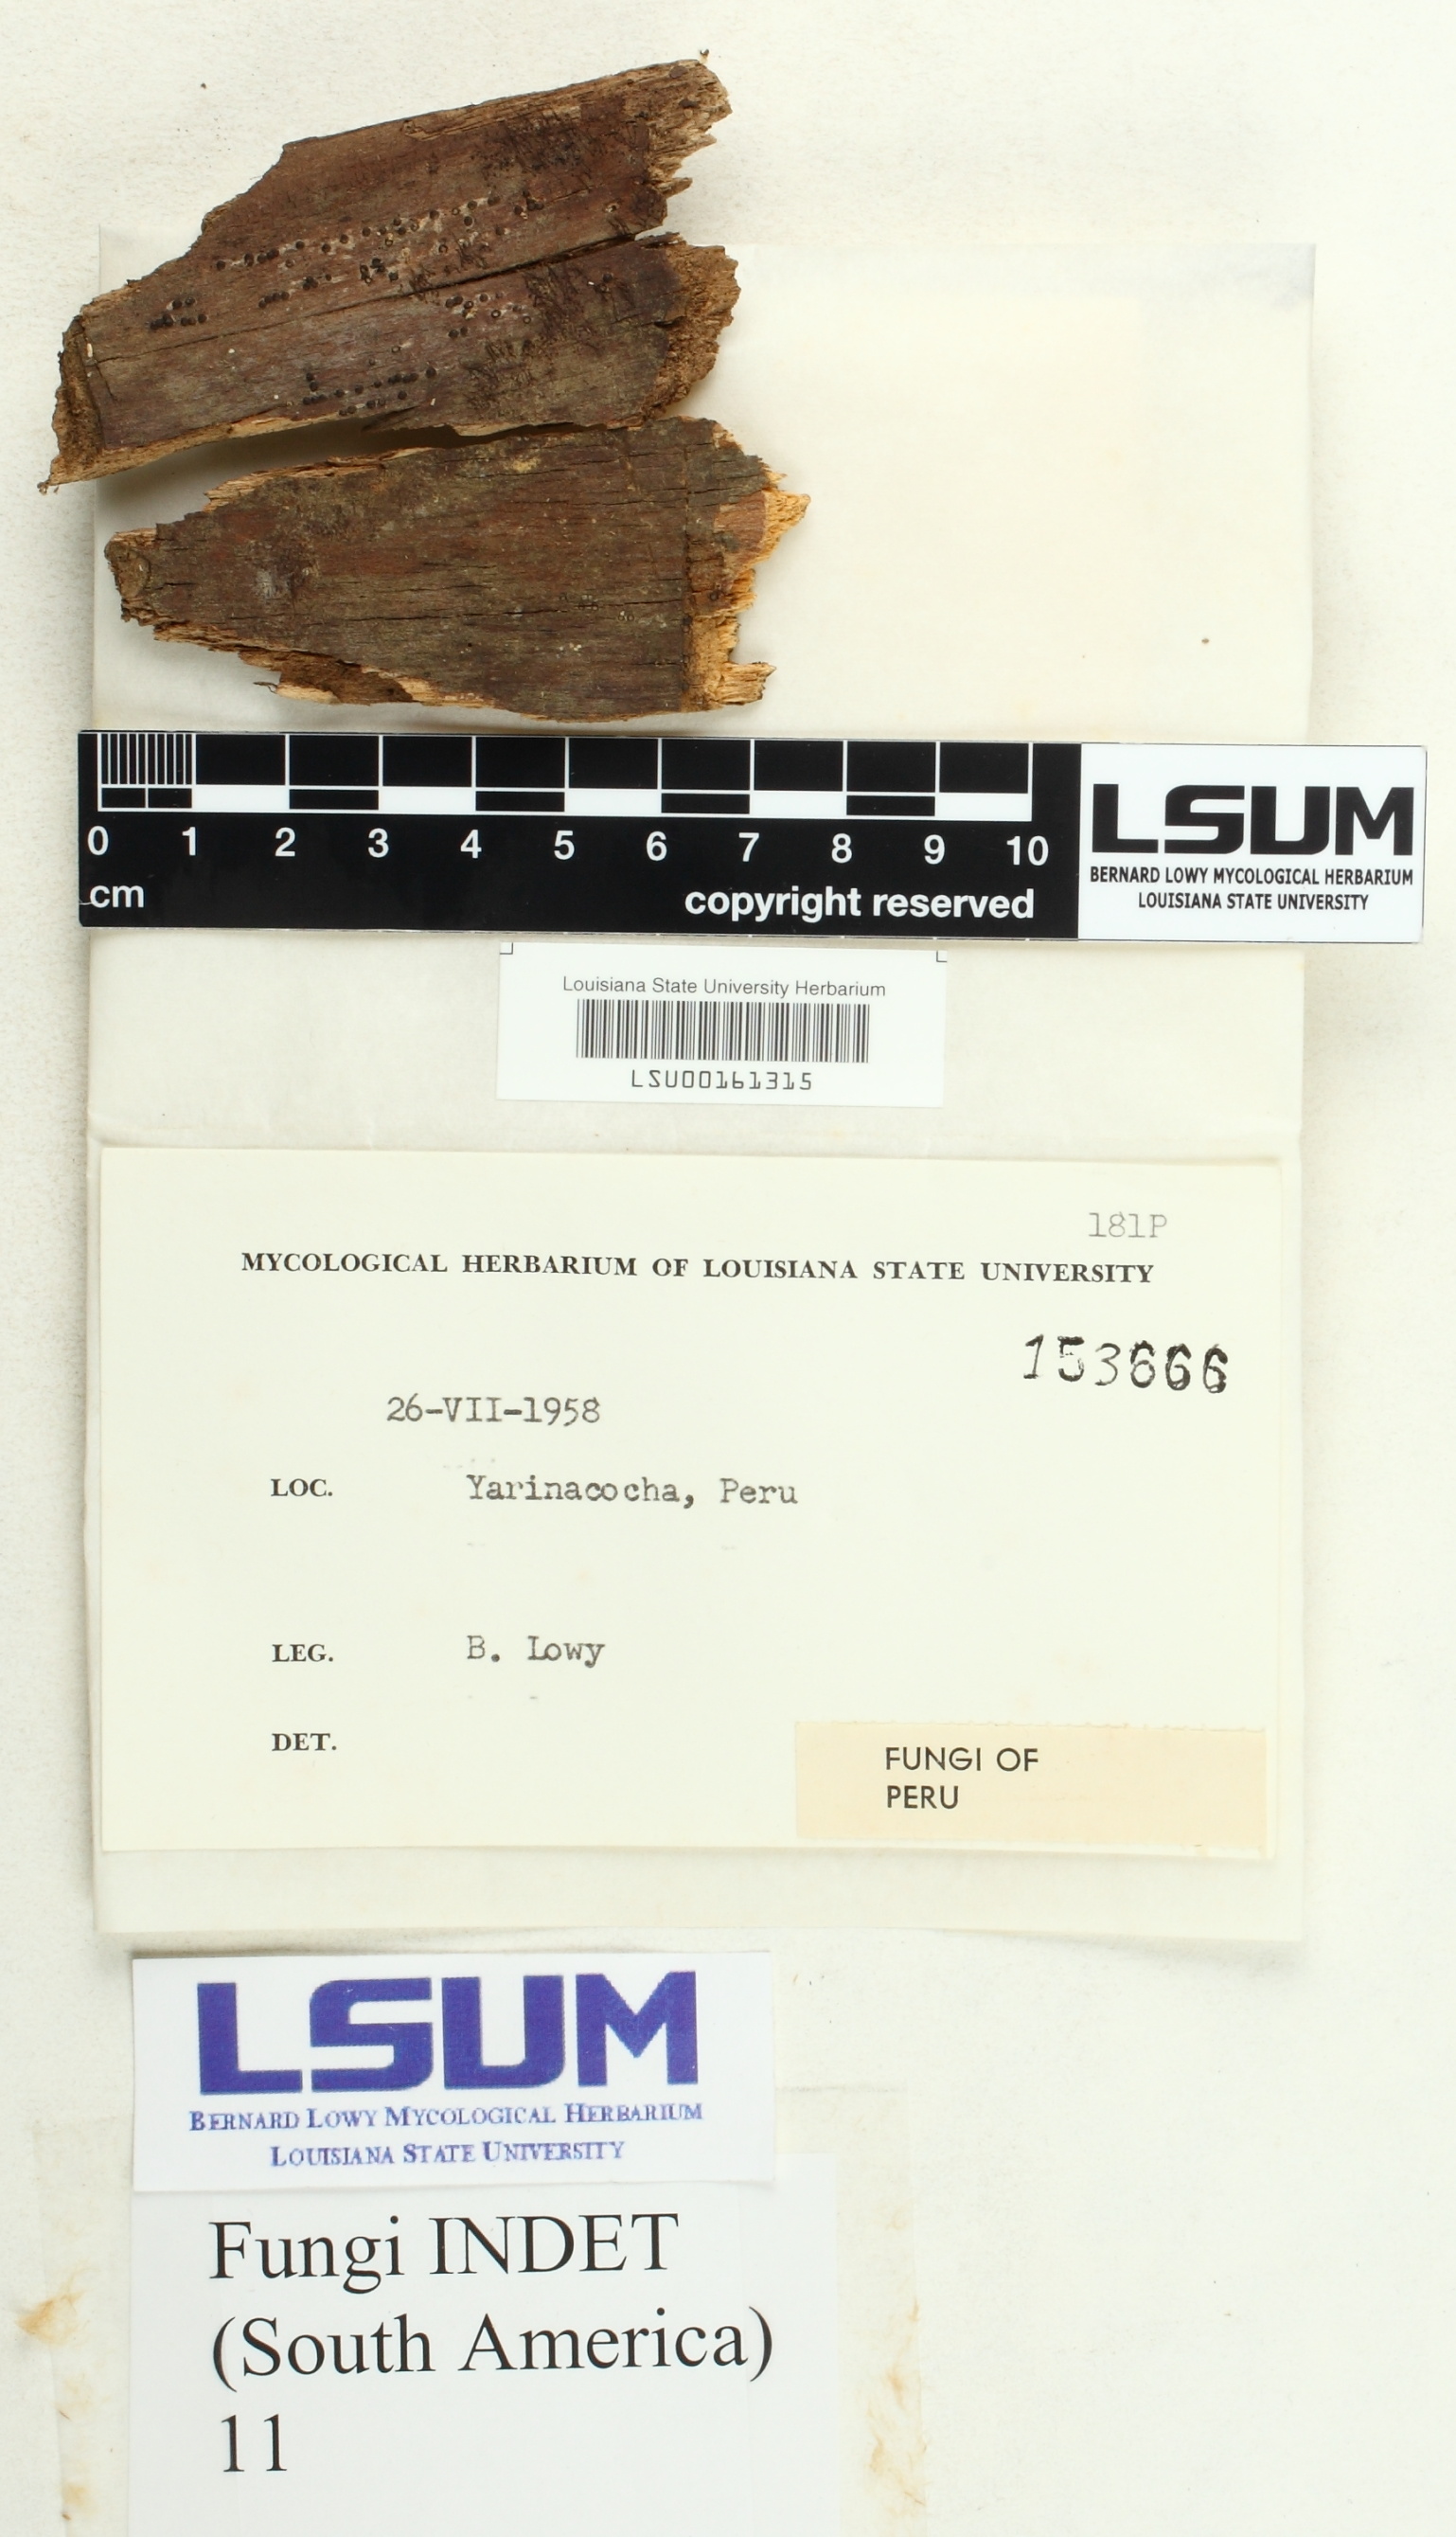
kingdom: Fungi
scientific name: Fungi
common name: Fungi
